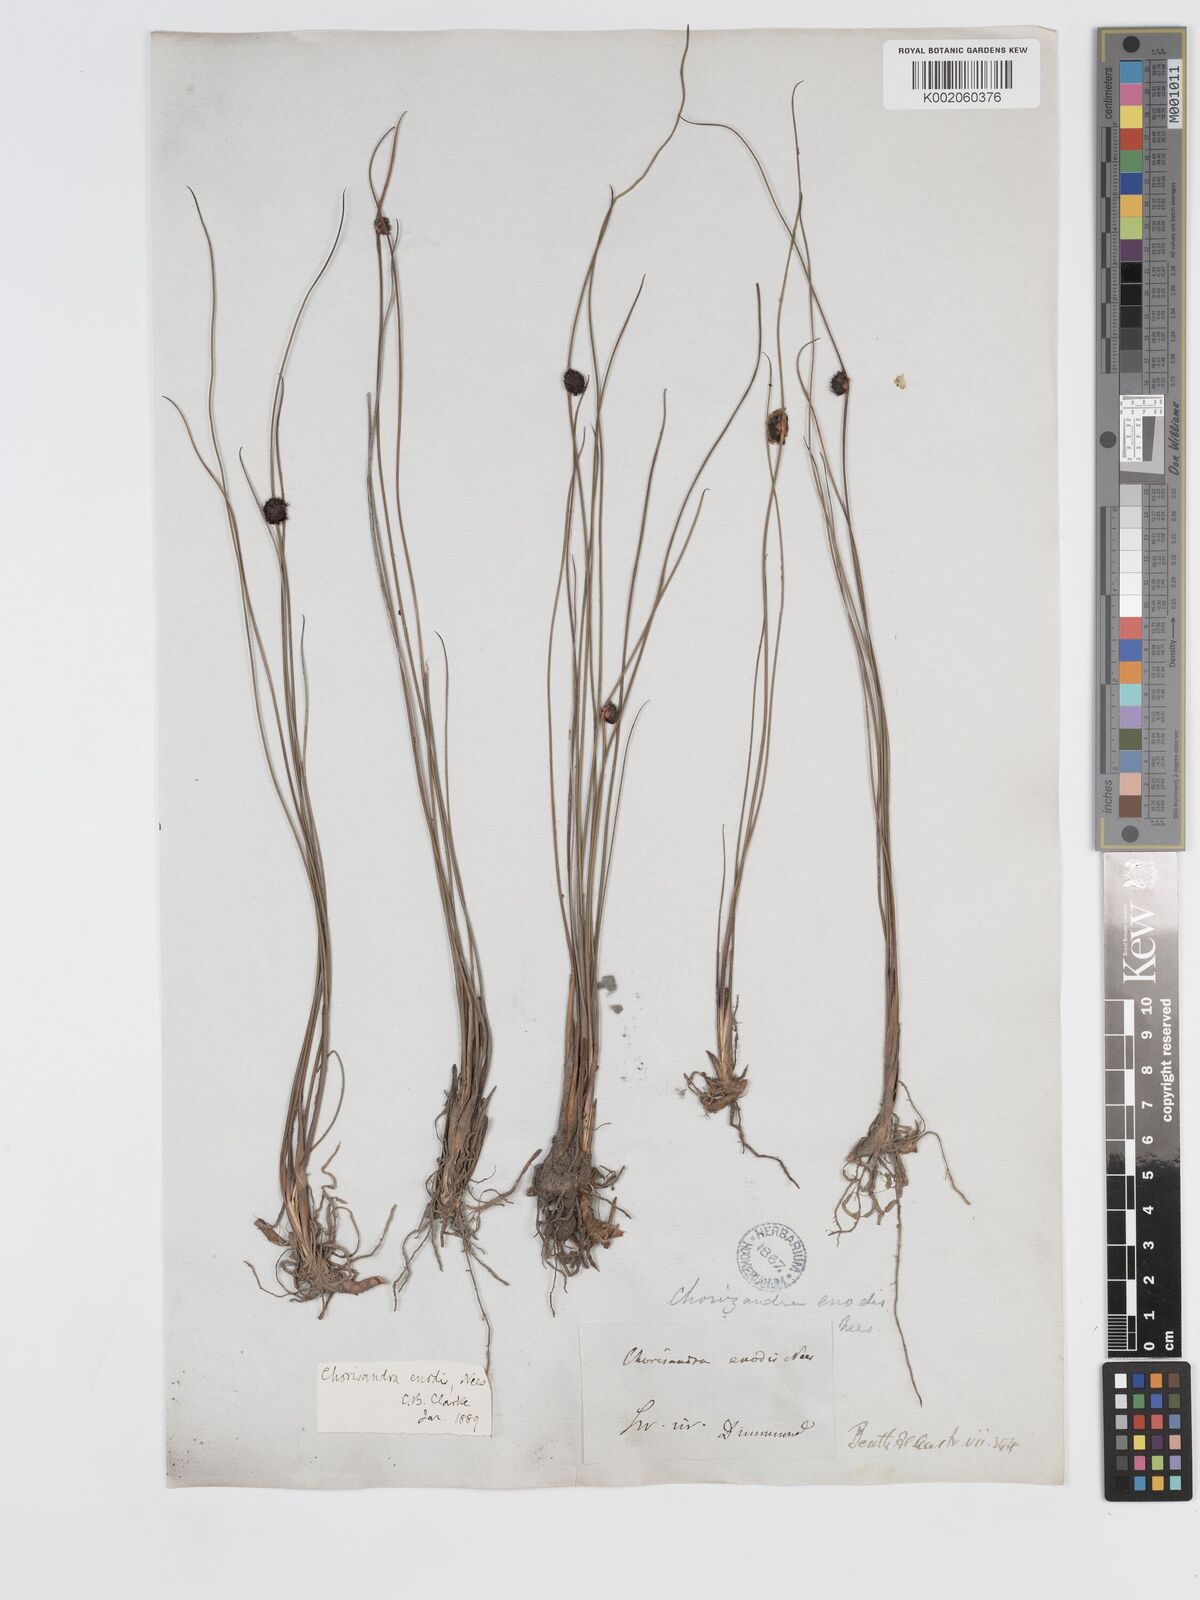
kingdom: Plantae
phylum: Tracheophyta
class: Liliopsida
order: Poales
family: Cyperaceae
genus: Chorizandra
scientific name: Chorizandra enodis
